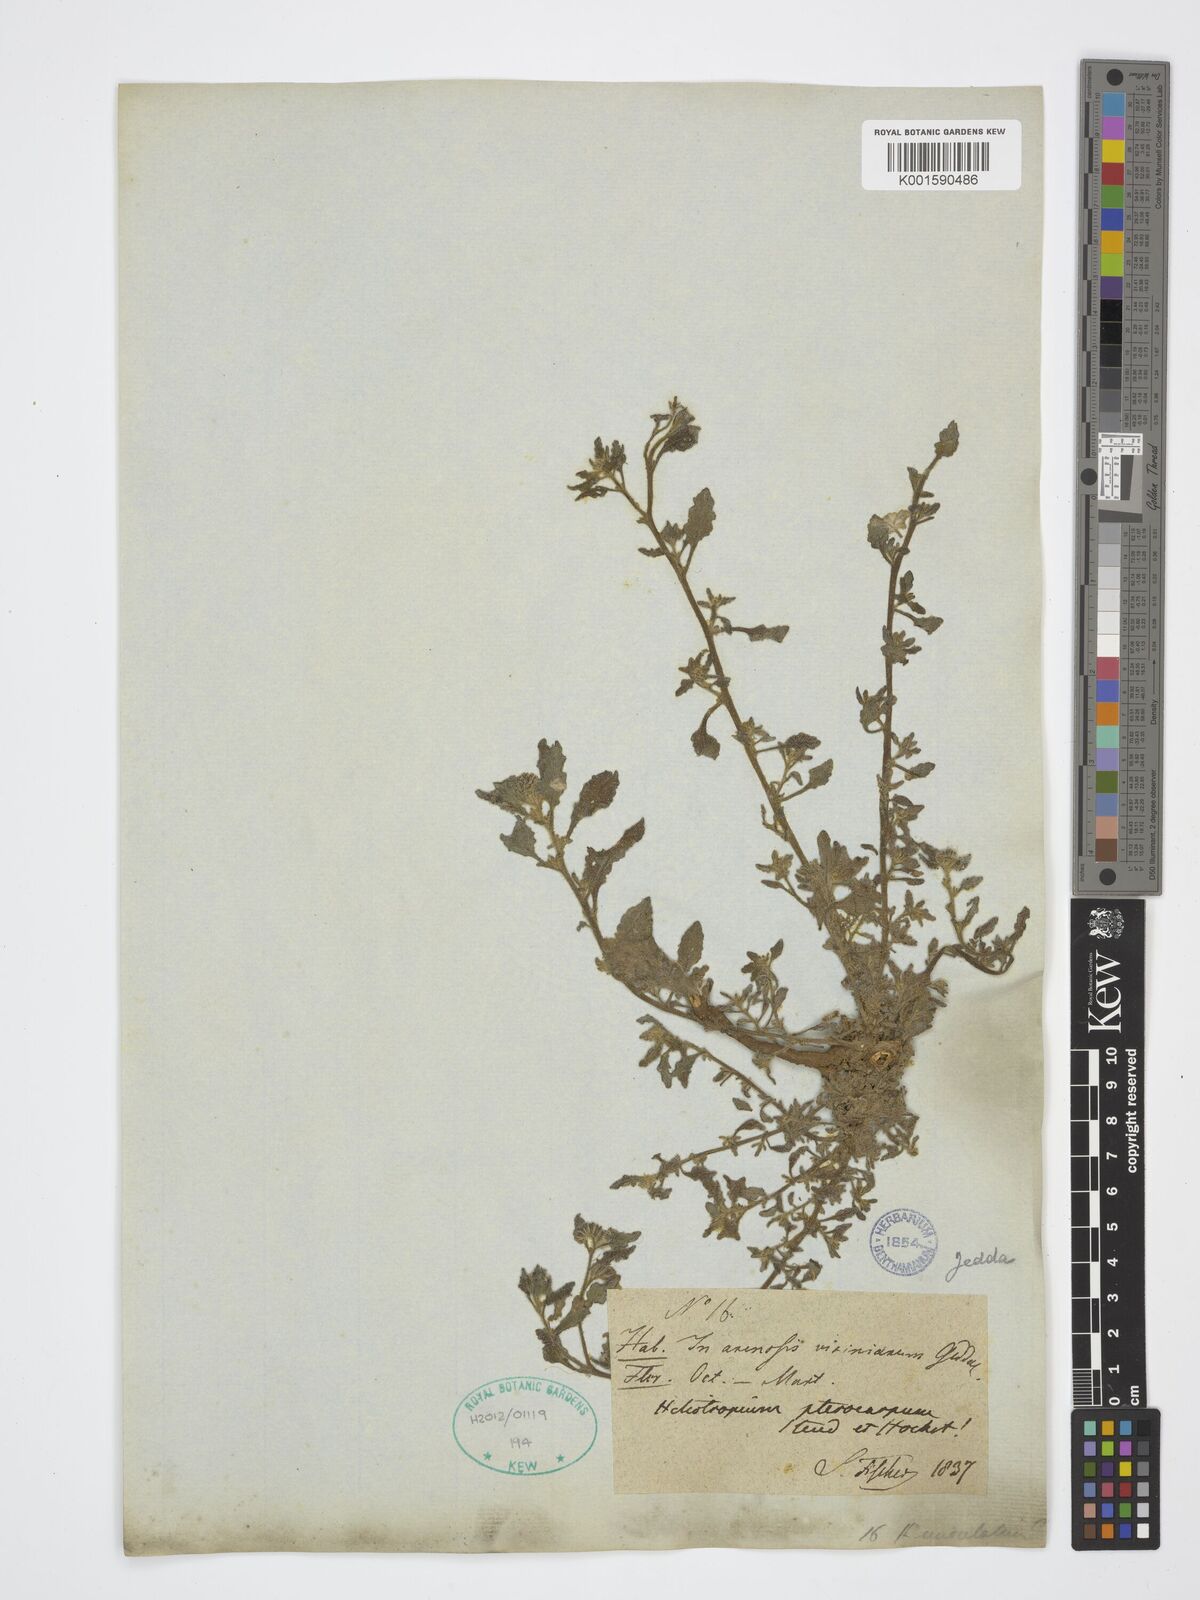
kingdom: Plantae
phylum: Tracheophyta
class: Magnoliopsida
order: Boraginales
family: Heliotropiaceae
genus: Heliotropium
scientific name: Heliotropium
